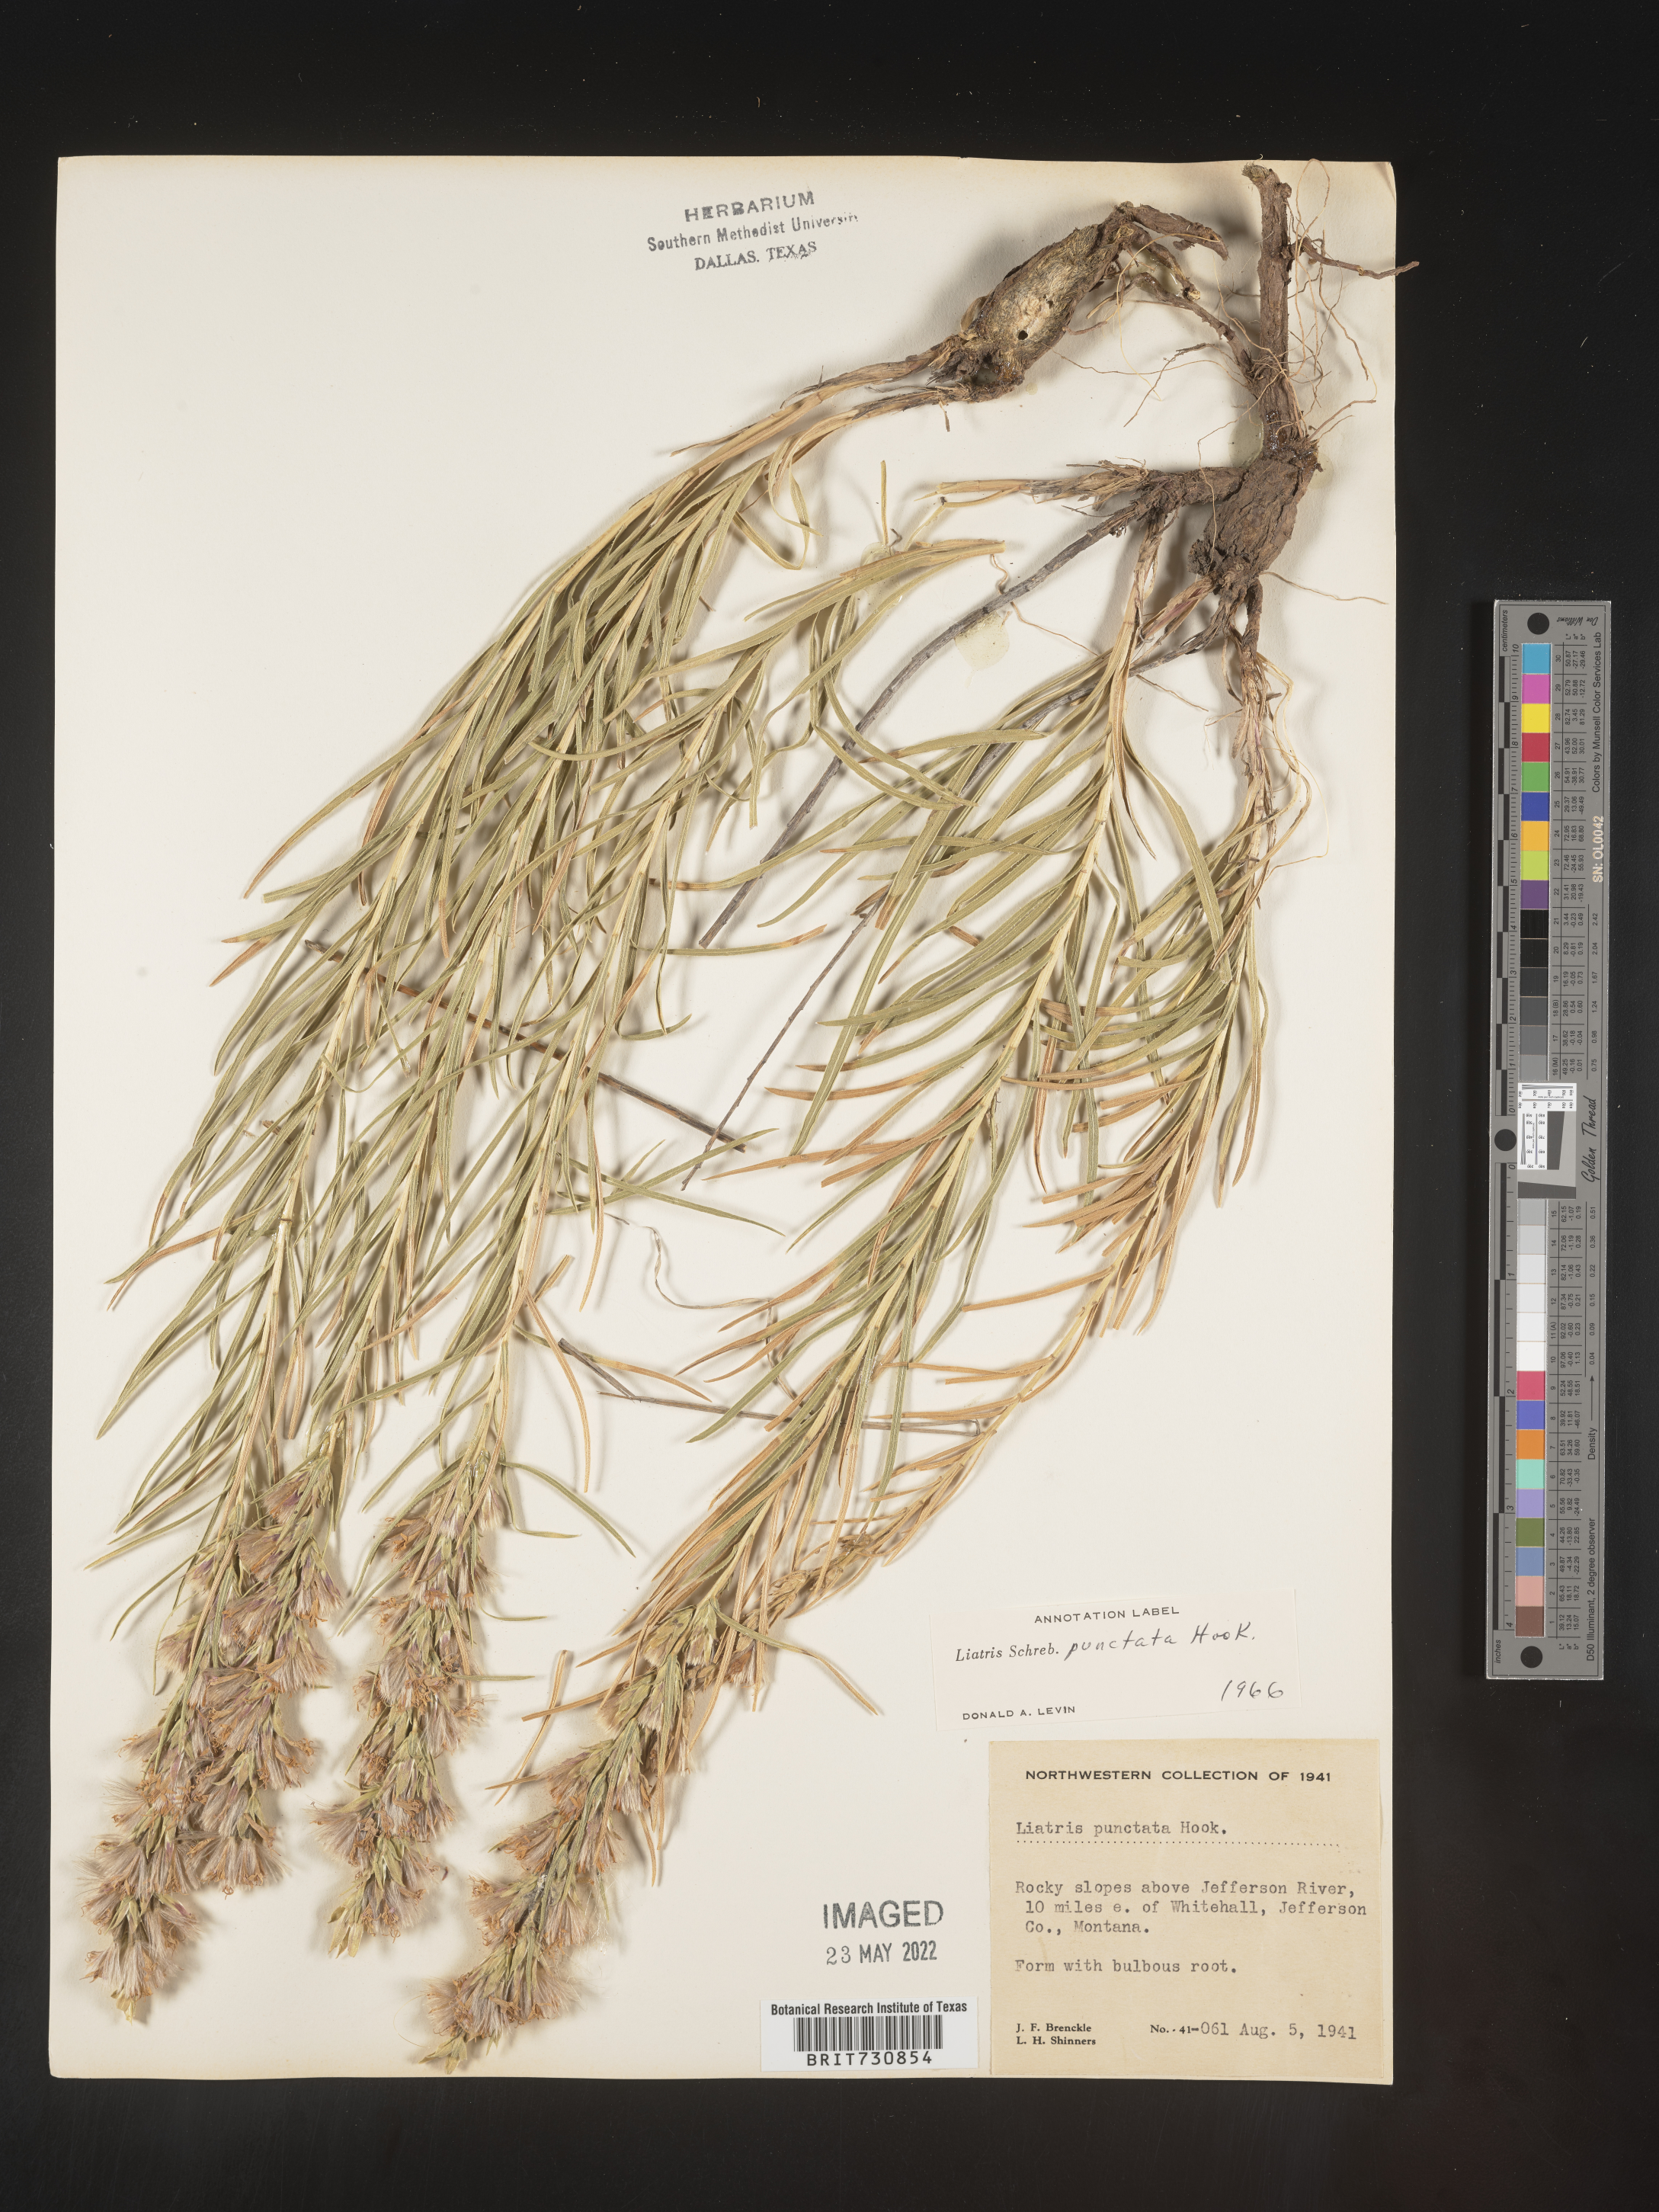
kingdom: Plantae
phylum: Tracheophyta
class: Magnoliopsida
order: Asterales
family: Asteraceae
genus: Liatris
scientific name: Liatris punctata
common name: Dotted gayfeather
